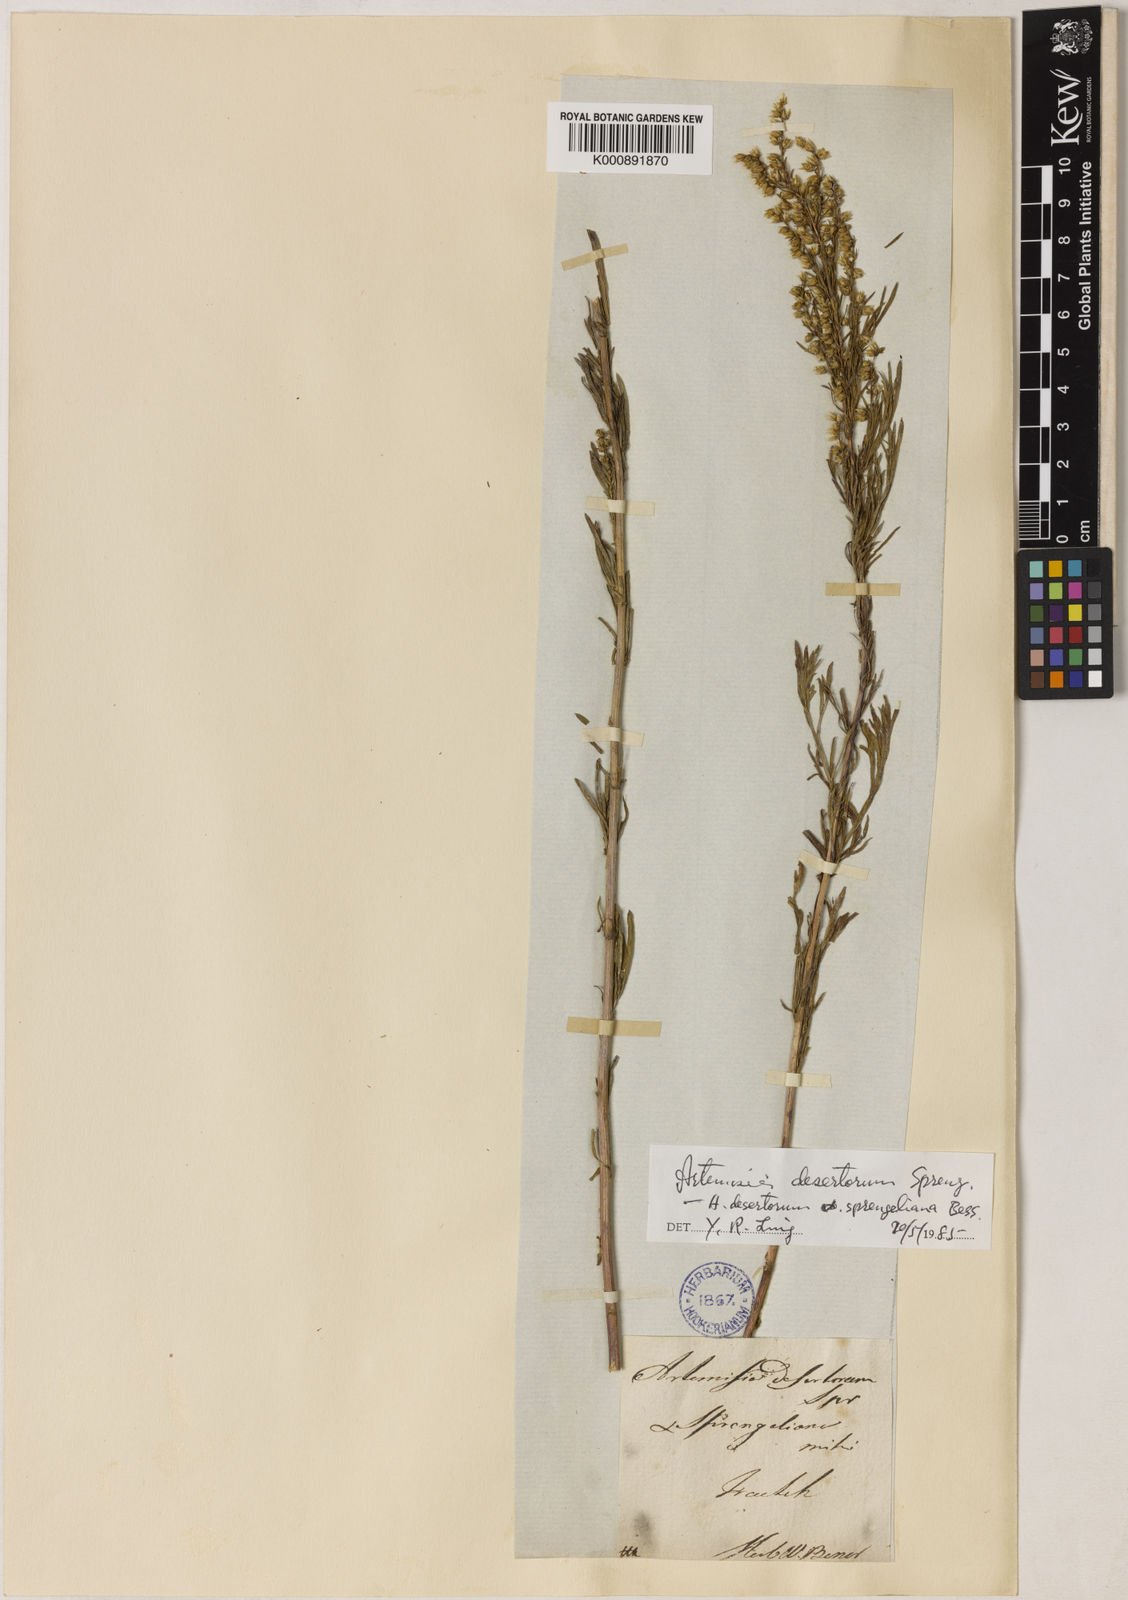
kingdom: Plantae
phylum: Tracheophyta
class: Magnoliopsida
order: Asterales
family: Asteraceae
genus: Artemisia
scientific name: Artemisia pubescens
